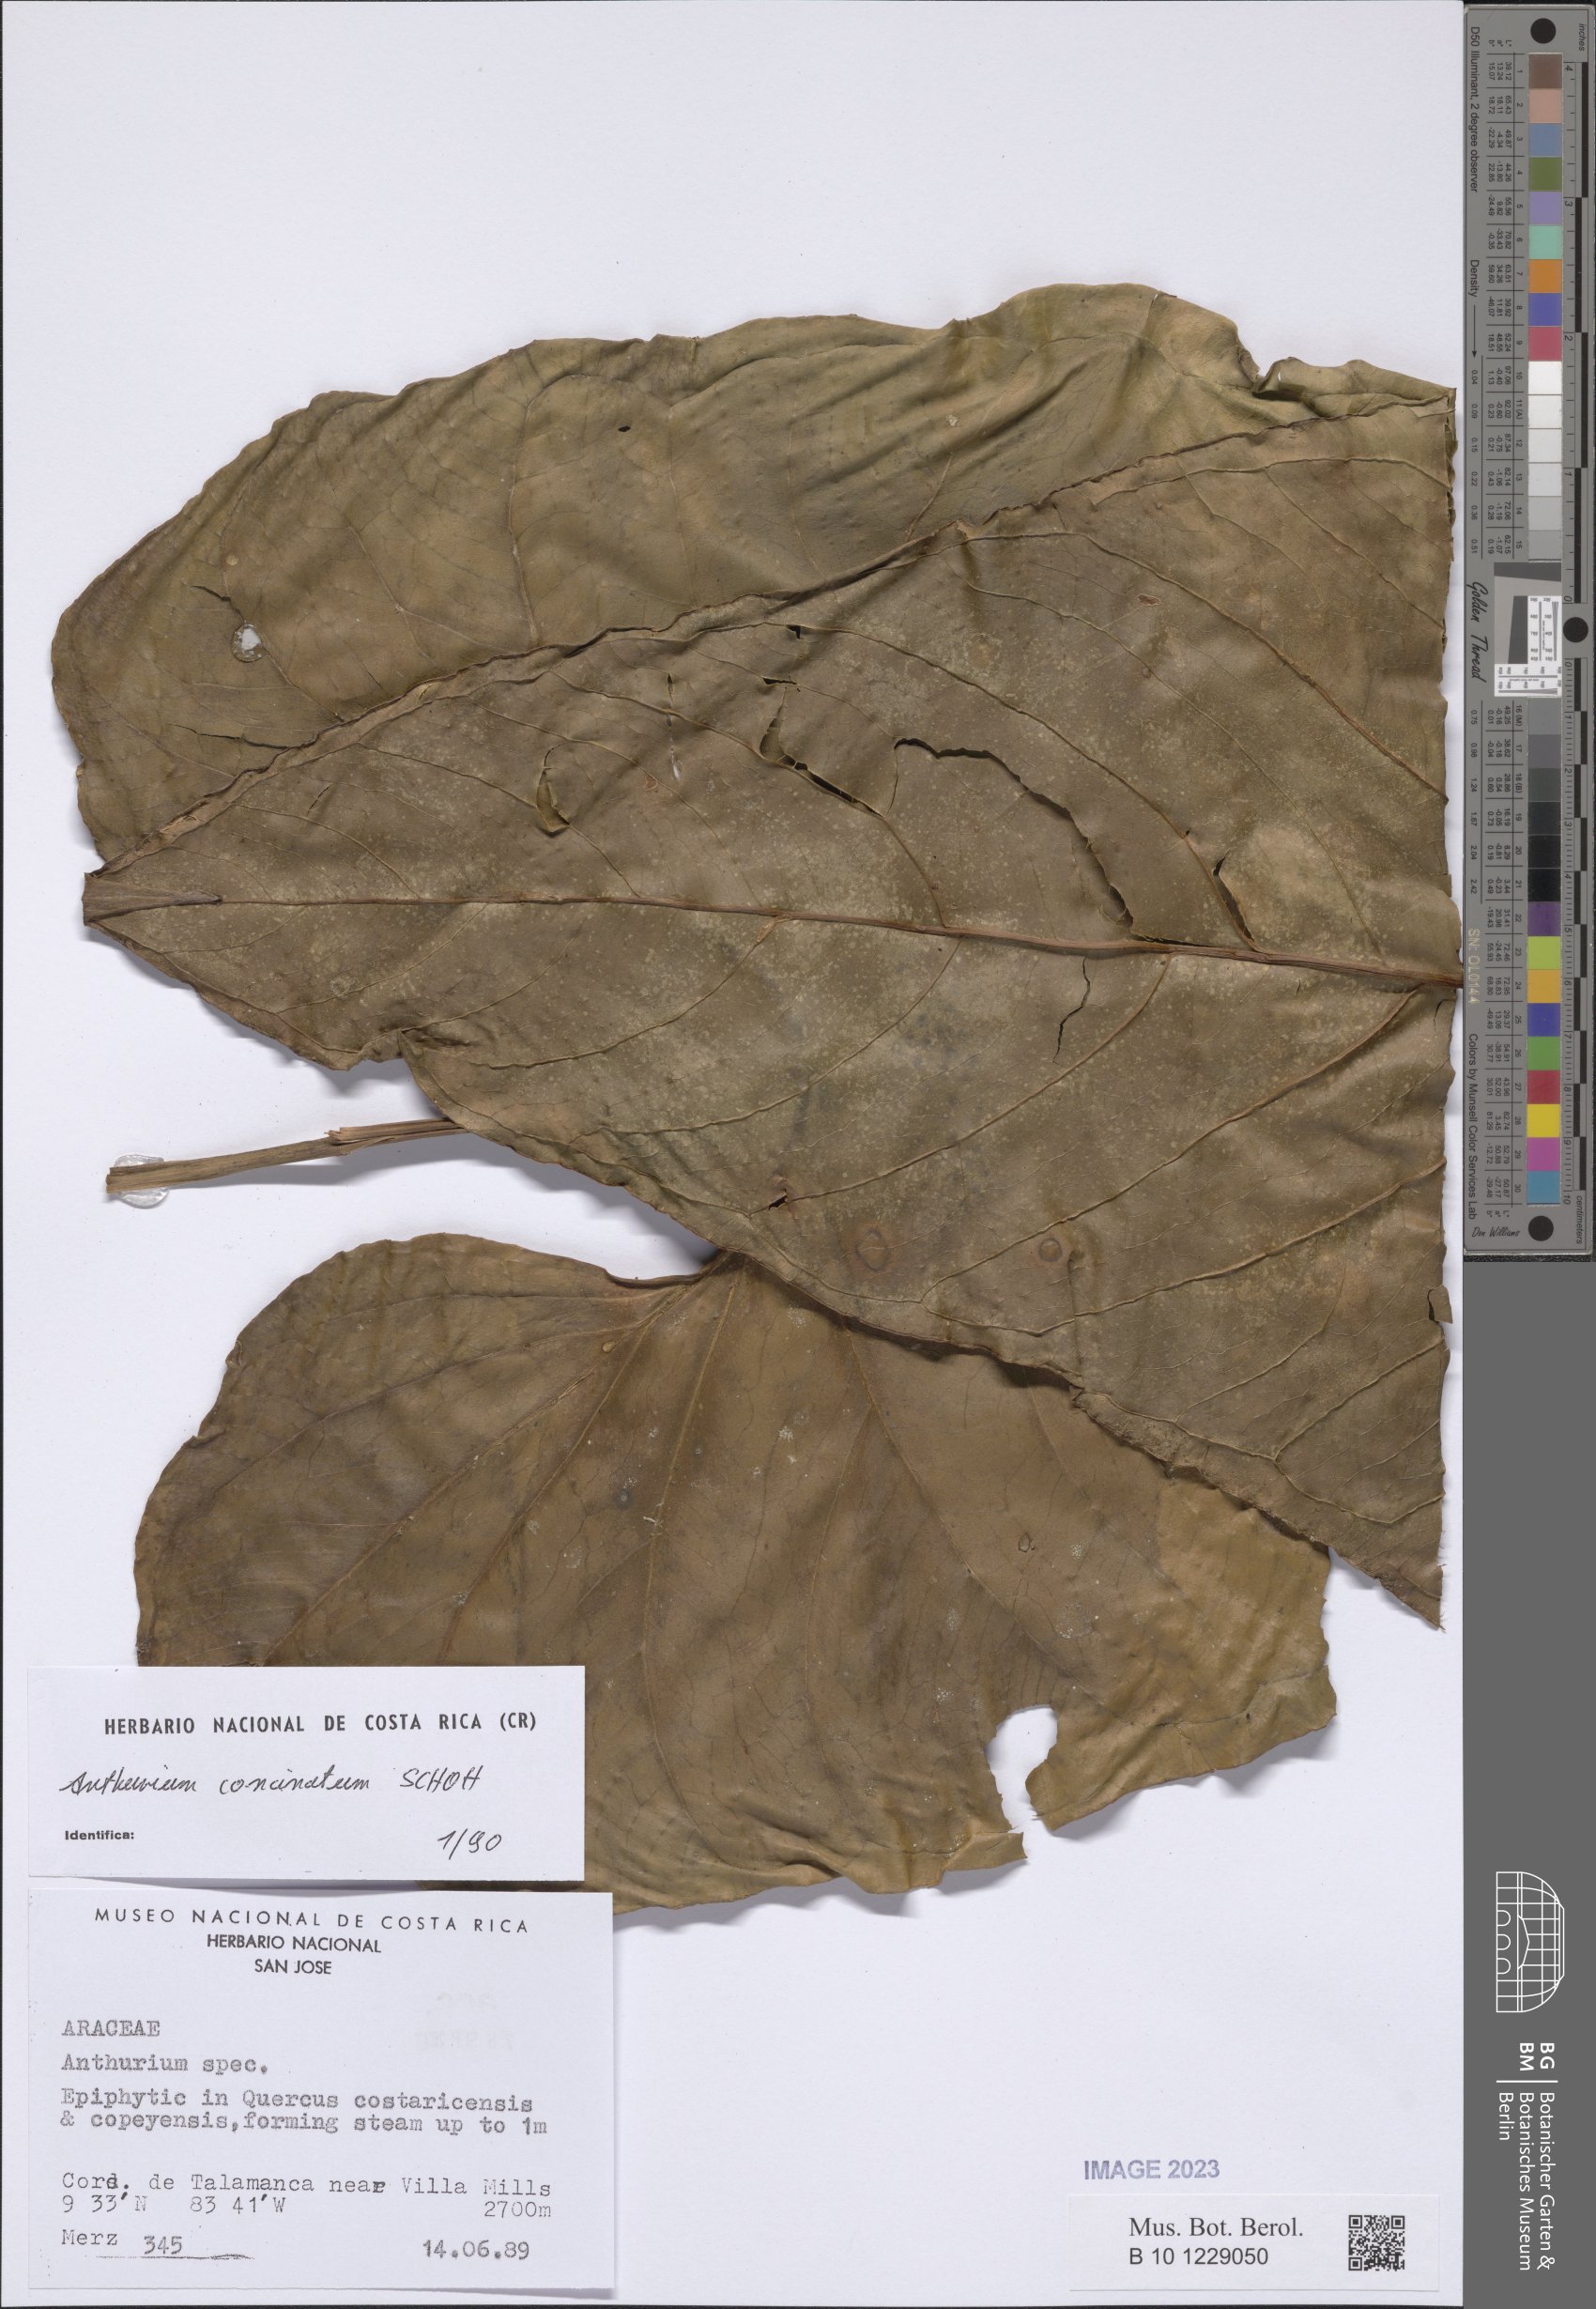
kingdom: Plantae
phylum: Tracheophyta
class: Liliopsida
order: Alismatales
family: Araceae
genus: Anthurium
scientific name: Anthurium concinnatum
